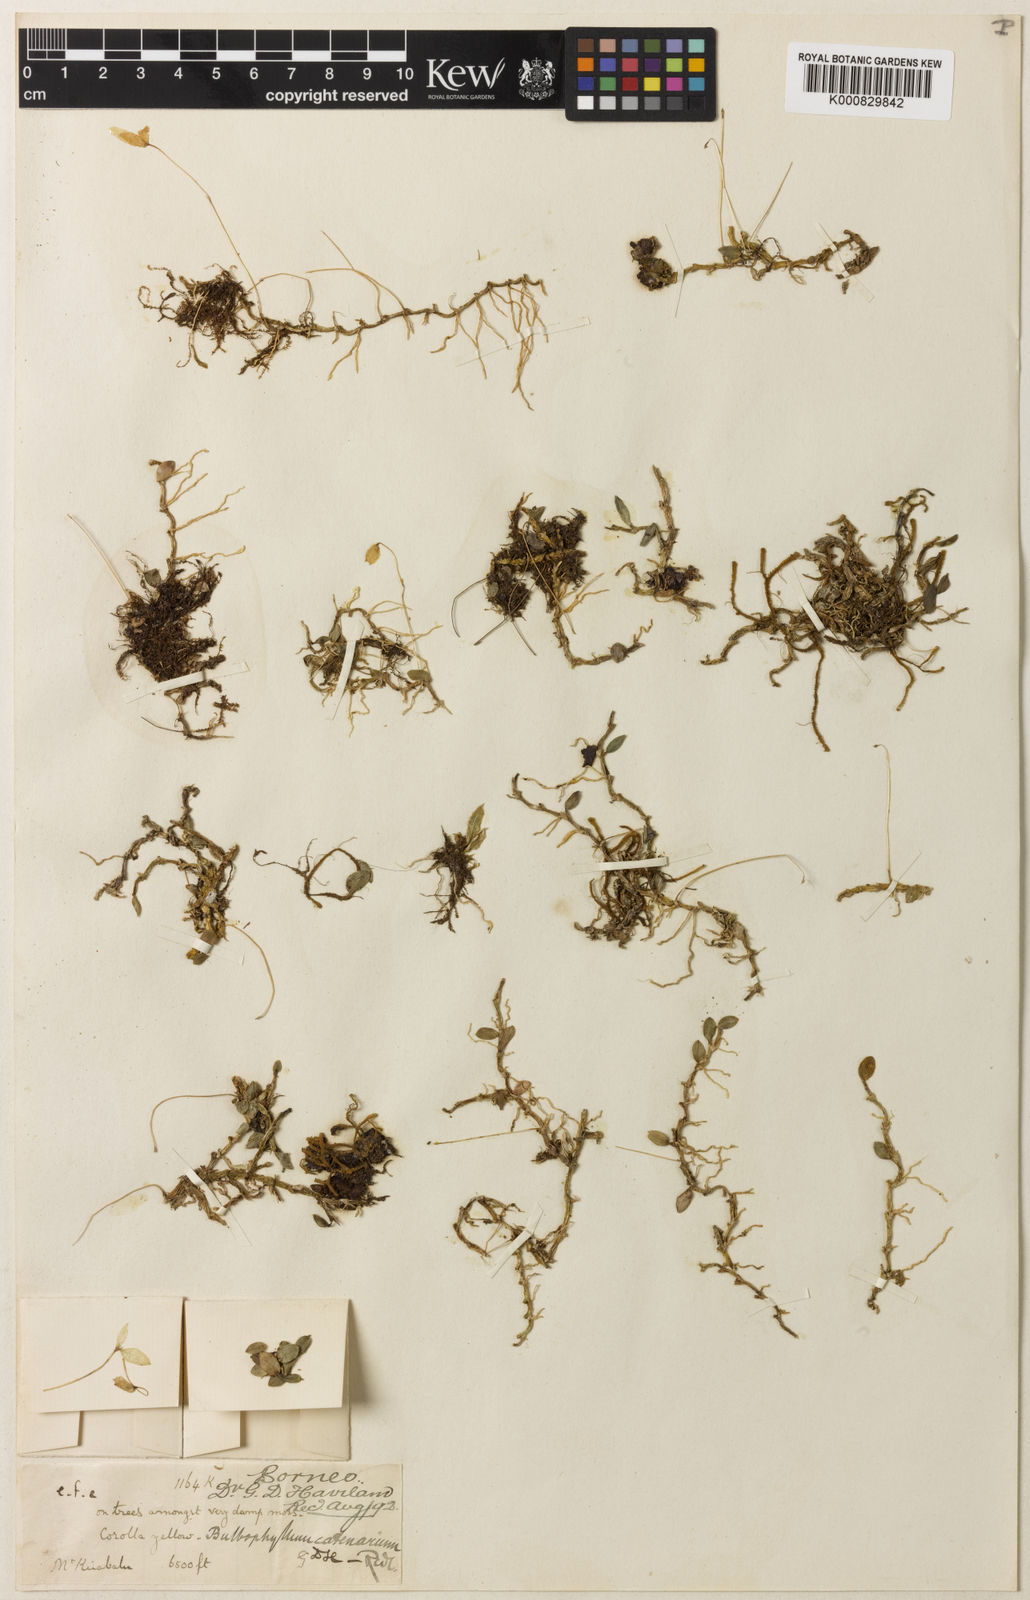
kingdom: Plantae
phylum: Tracheophyta
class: Liliopsida
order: Asparagales
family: Orchidaceae
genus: Bulbophyllum
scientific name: Bulbophyllum catenarium
